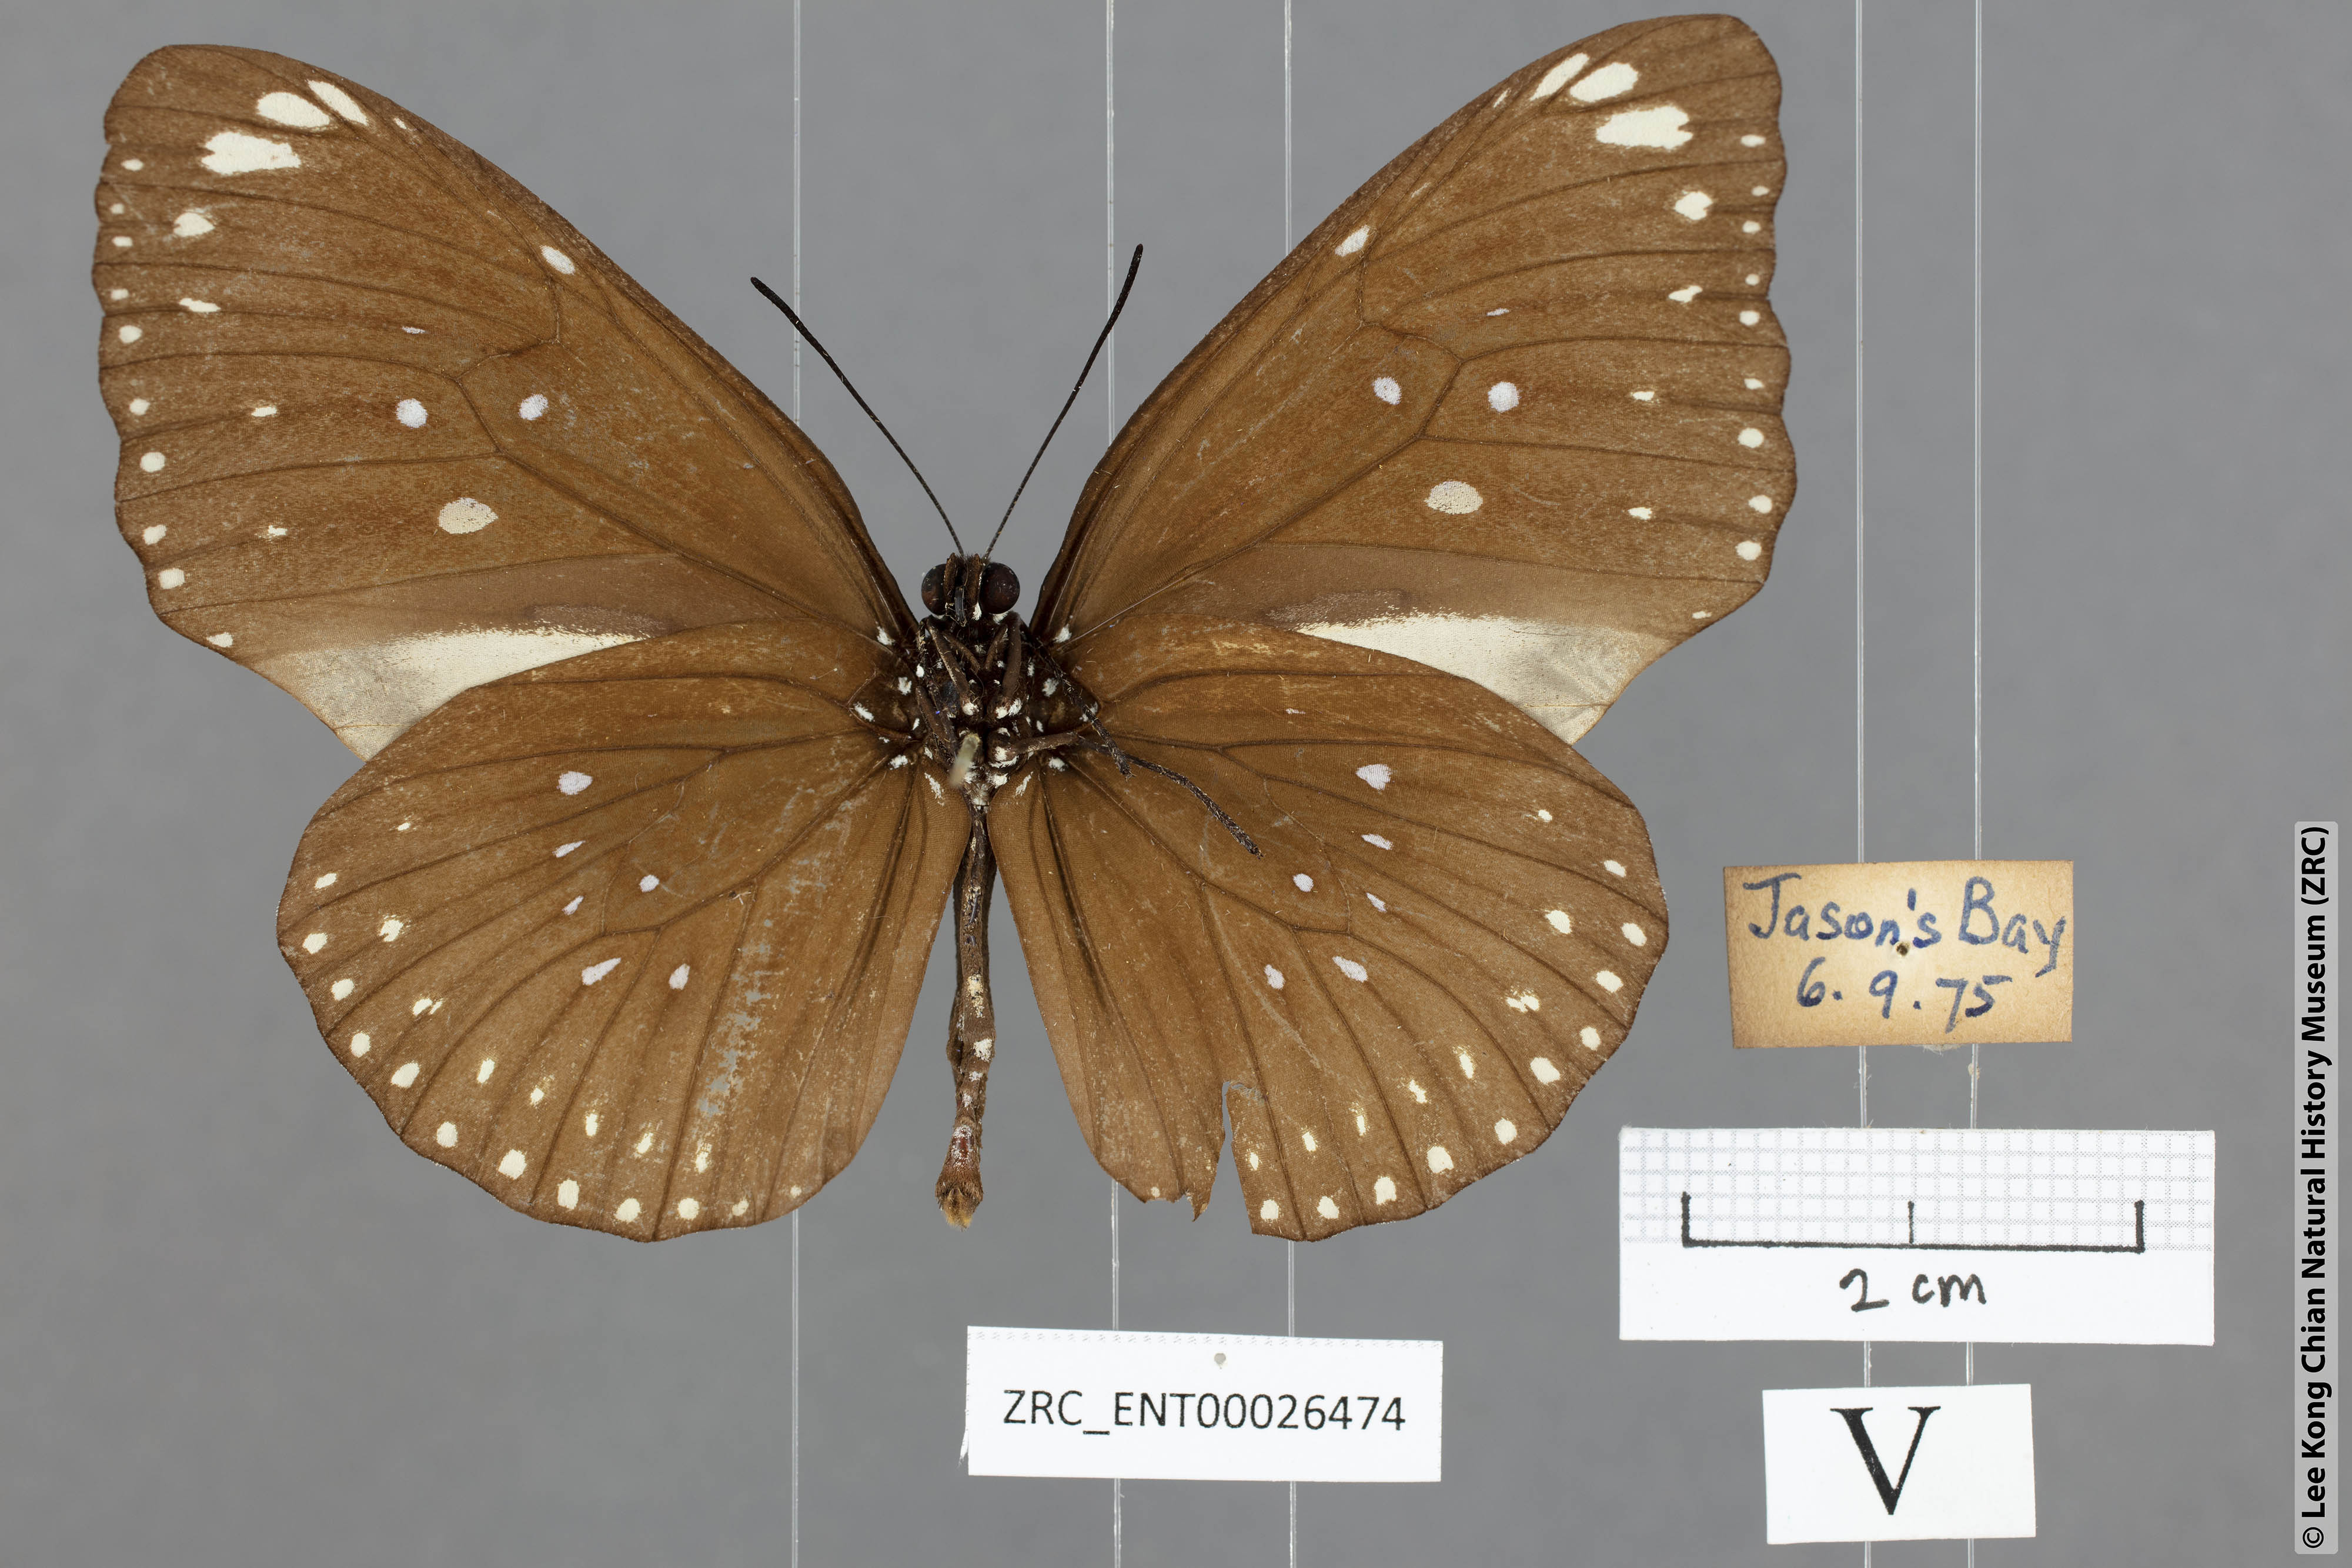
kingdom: Animalia
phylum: Arthropoda
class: Insecta
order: Lepidoptera
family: Nymphalidae
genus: Euploea
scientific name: Euploea modesta
